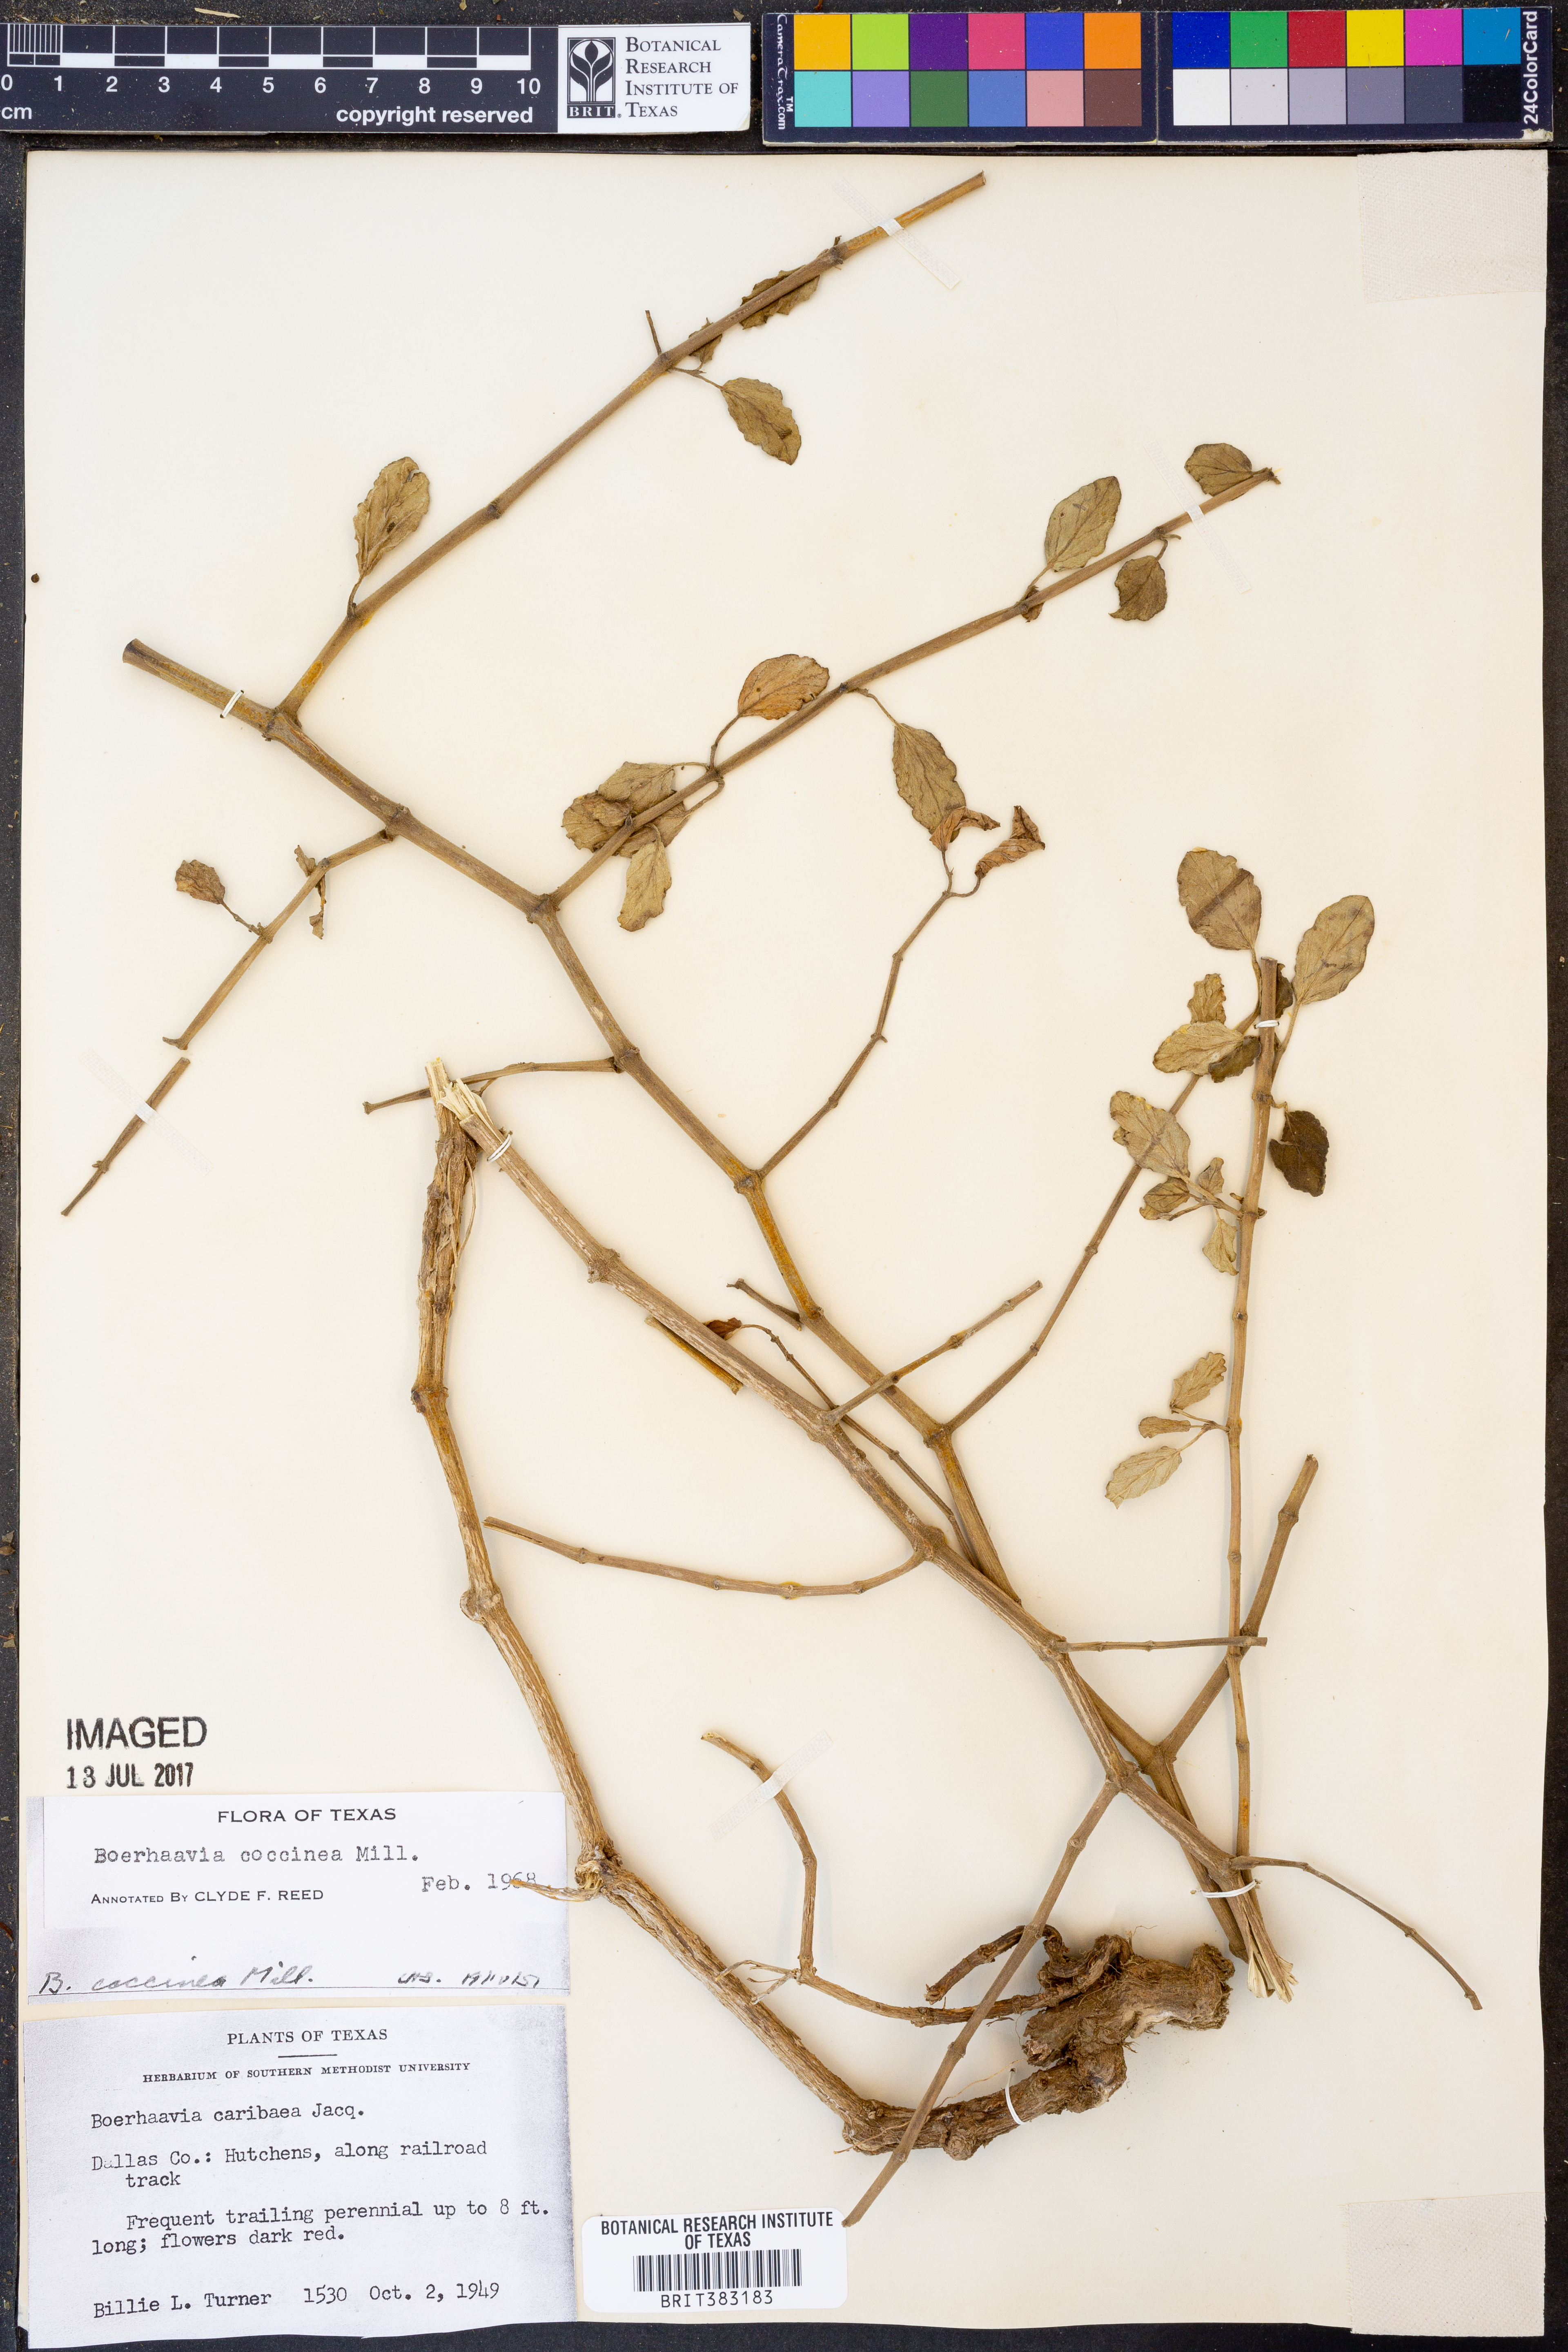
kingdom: Plantae
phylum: Tracheophyta
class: Magnoliopsida
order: Caryophyllales
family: Nyctaginaceae
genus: Boerhavia
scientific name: Boerhavia coccinea
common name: Scarlet spiderling
